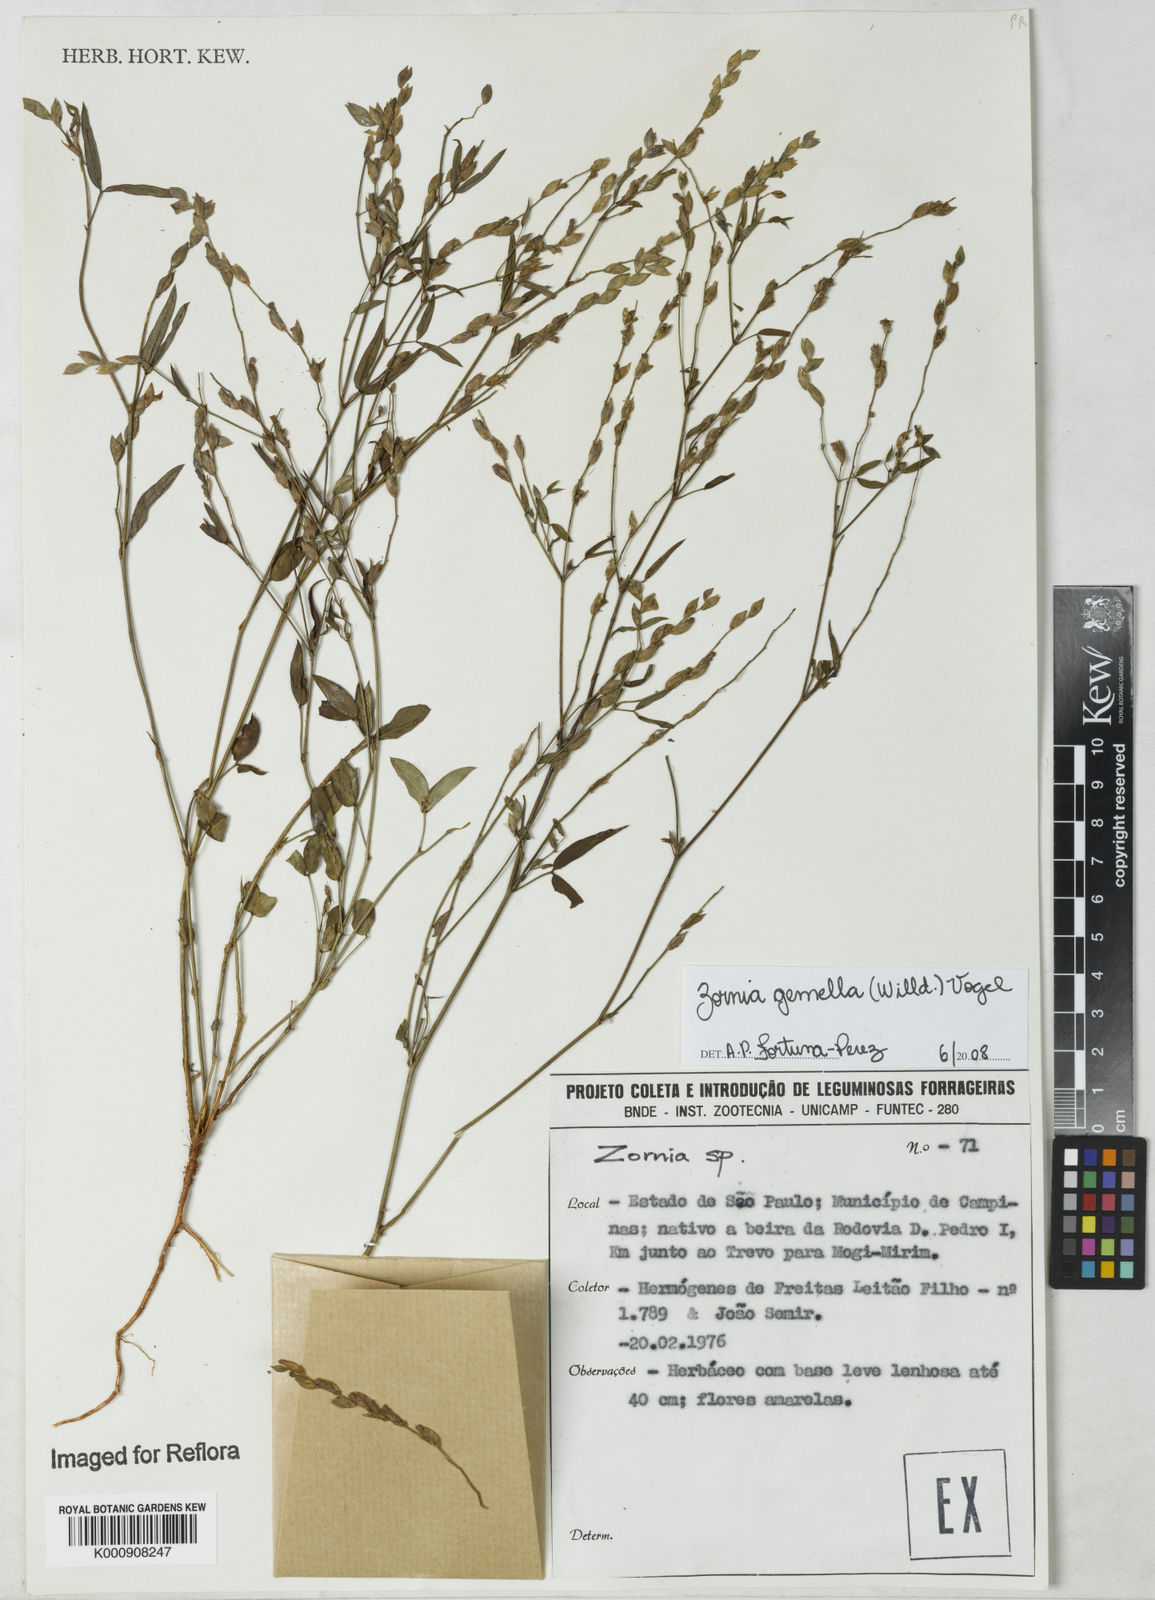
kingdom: Plantae
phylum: Tracheophyta
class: Magnoliopsida
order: Fabales
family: Fabaceae
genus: Zornia
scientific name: Zornia latifolia
